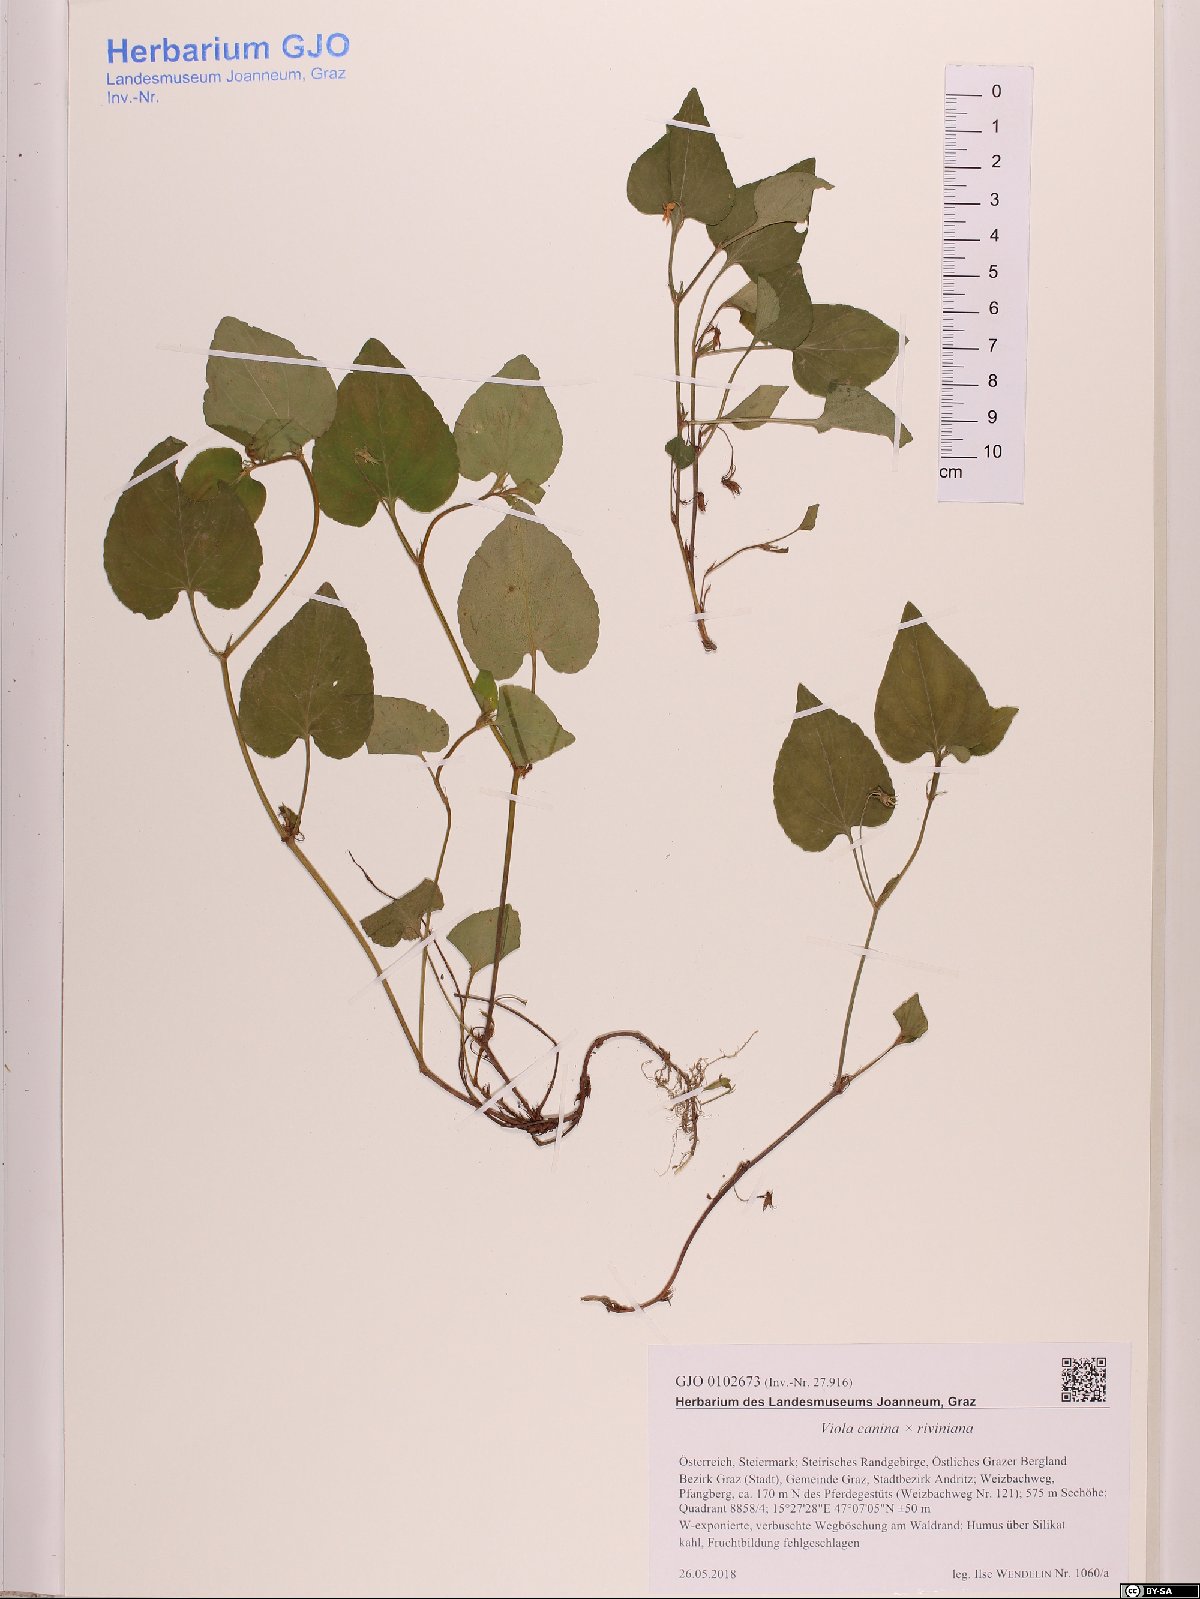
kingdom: Plantae
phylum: Tracheophyta
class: Magnoliopsida
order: Malpighiales
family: Violaceae
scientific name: Violaceae
